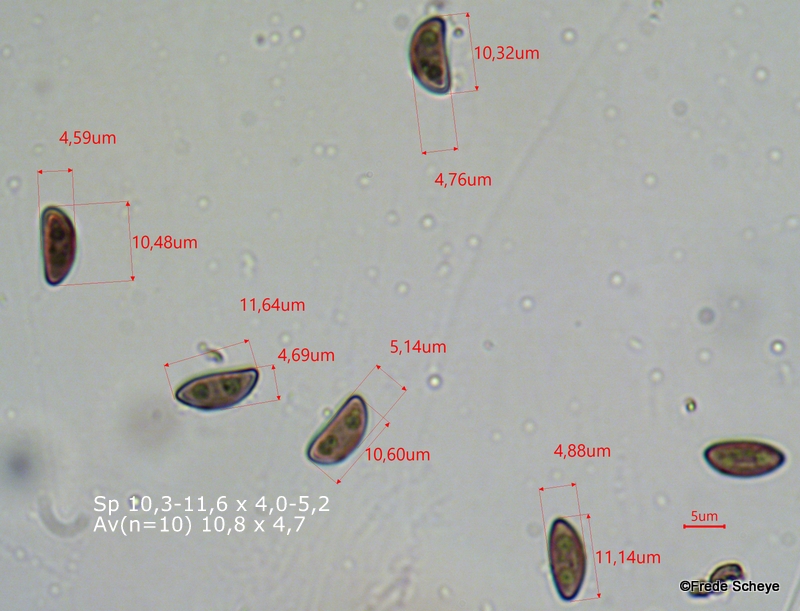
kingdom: Fungi
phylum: Ascomycota
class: Sordariomycetes
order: Xylariales
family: Hypoxylaceae
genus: Jackrogersella
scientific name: Jackrogersella multiformis
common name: foranderlig kulbær
